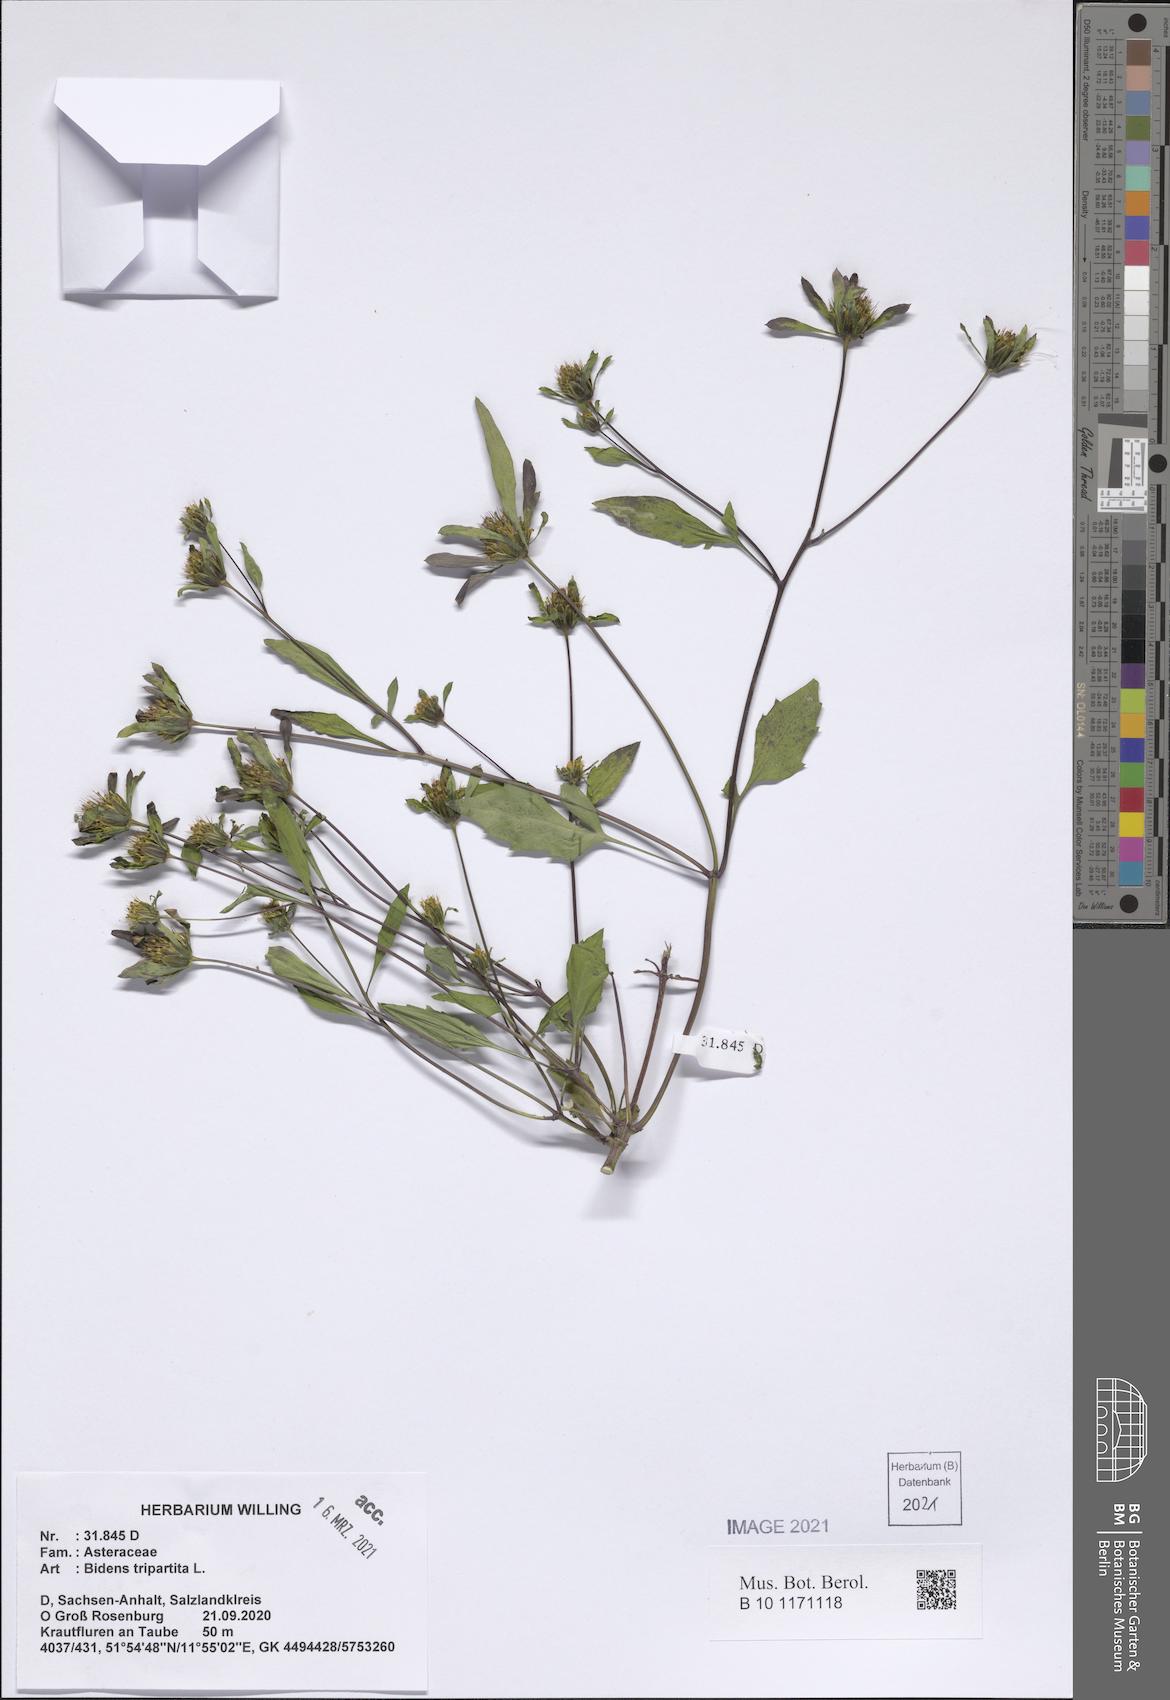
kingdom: Plantae
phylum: Tracheophyta
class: Magnoliopsida
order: Asterales
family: Asteraceae
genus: Bidens
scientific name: Bidens tripartita
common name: Trifid bur-marigold
